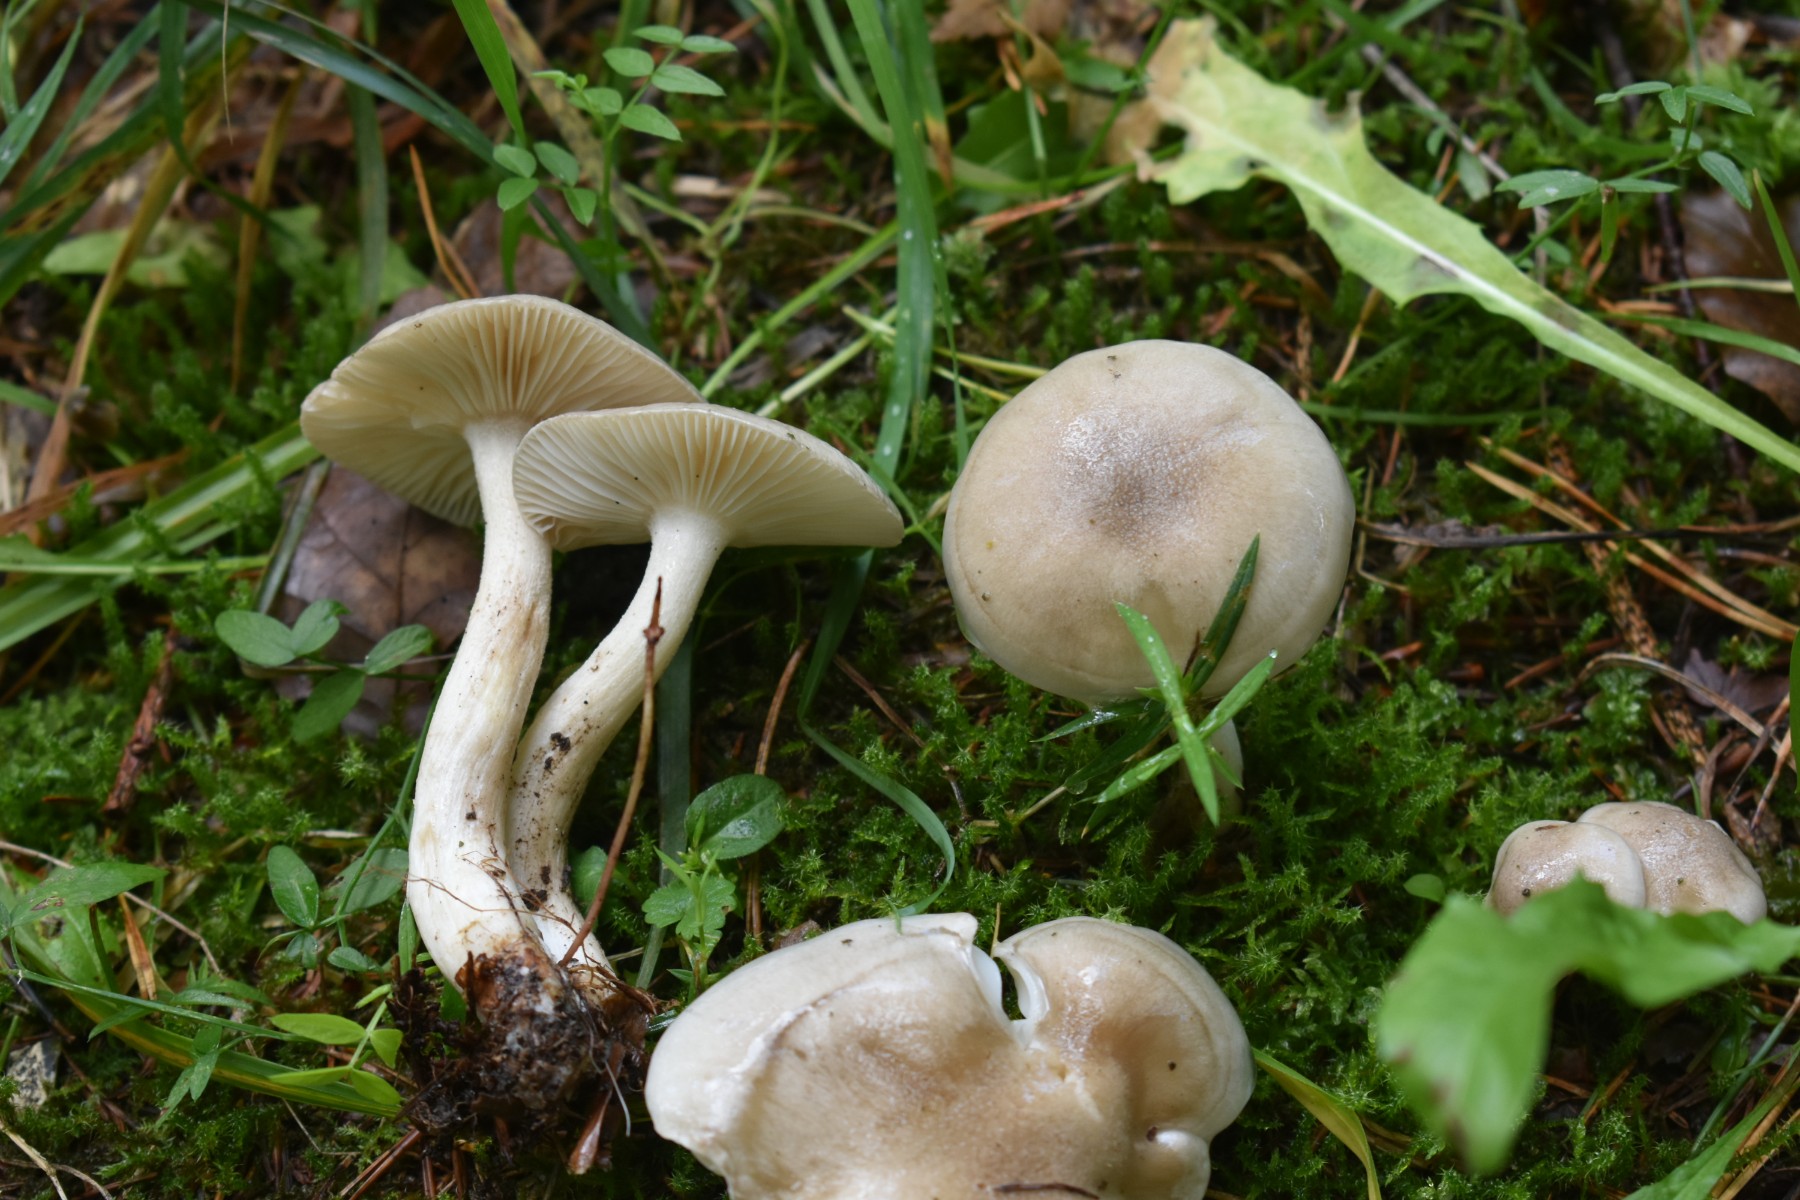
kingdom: Fungi
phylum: Basidiomycota
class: Agaricomycetes
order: Agaricales
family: Hygrophoraceae
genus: Hygrophorus
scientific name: Hygrophorus agathosmus
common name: vellugtende sneglehat
